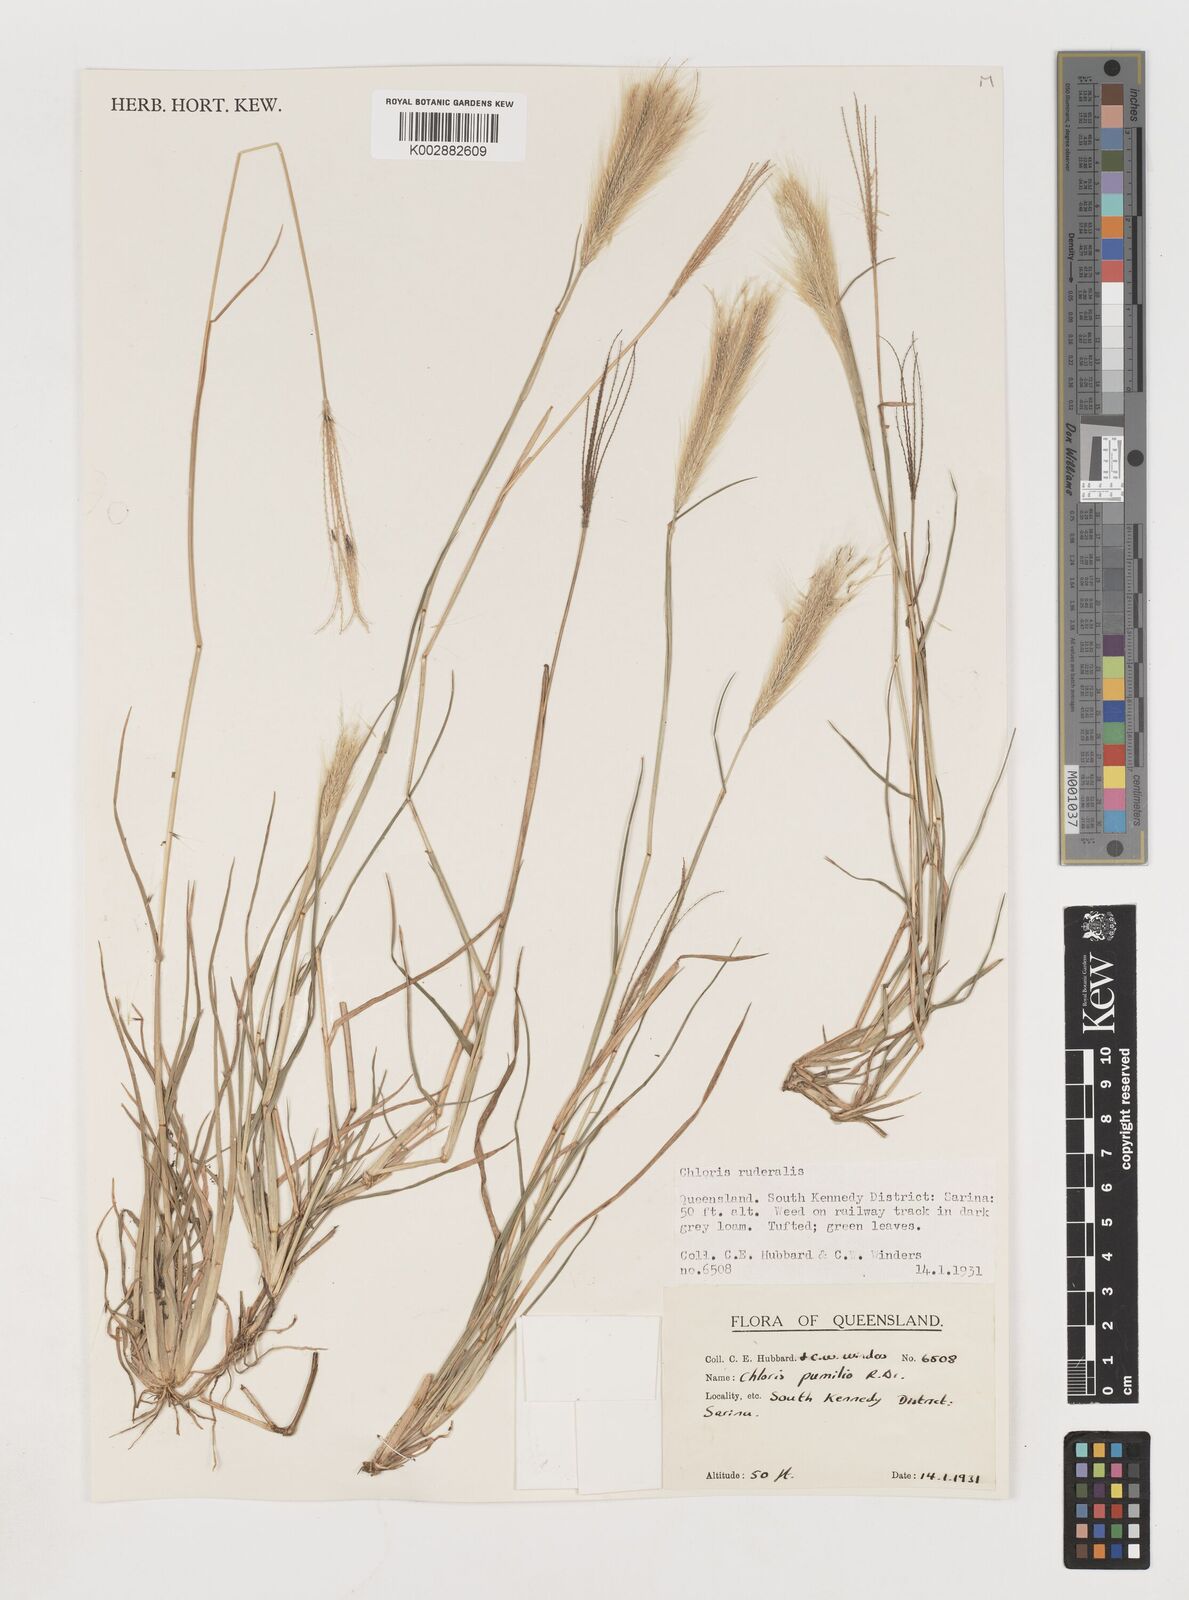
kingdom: Plantae
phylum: Tracheophyta
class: Liliopsida
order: Poales
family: Poaceae
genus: Chloris
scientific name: Chloris pumilio
